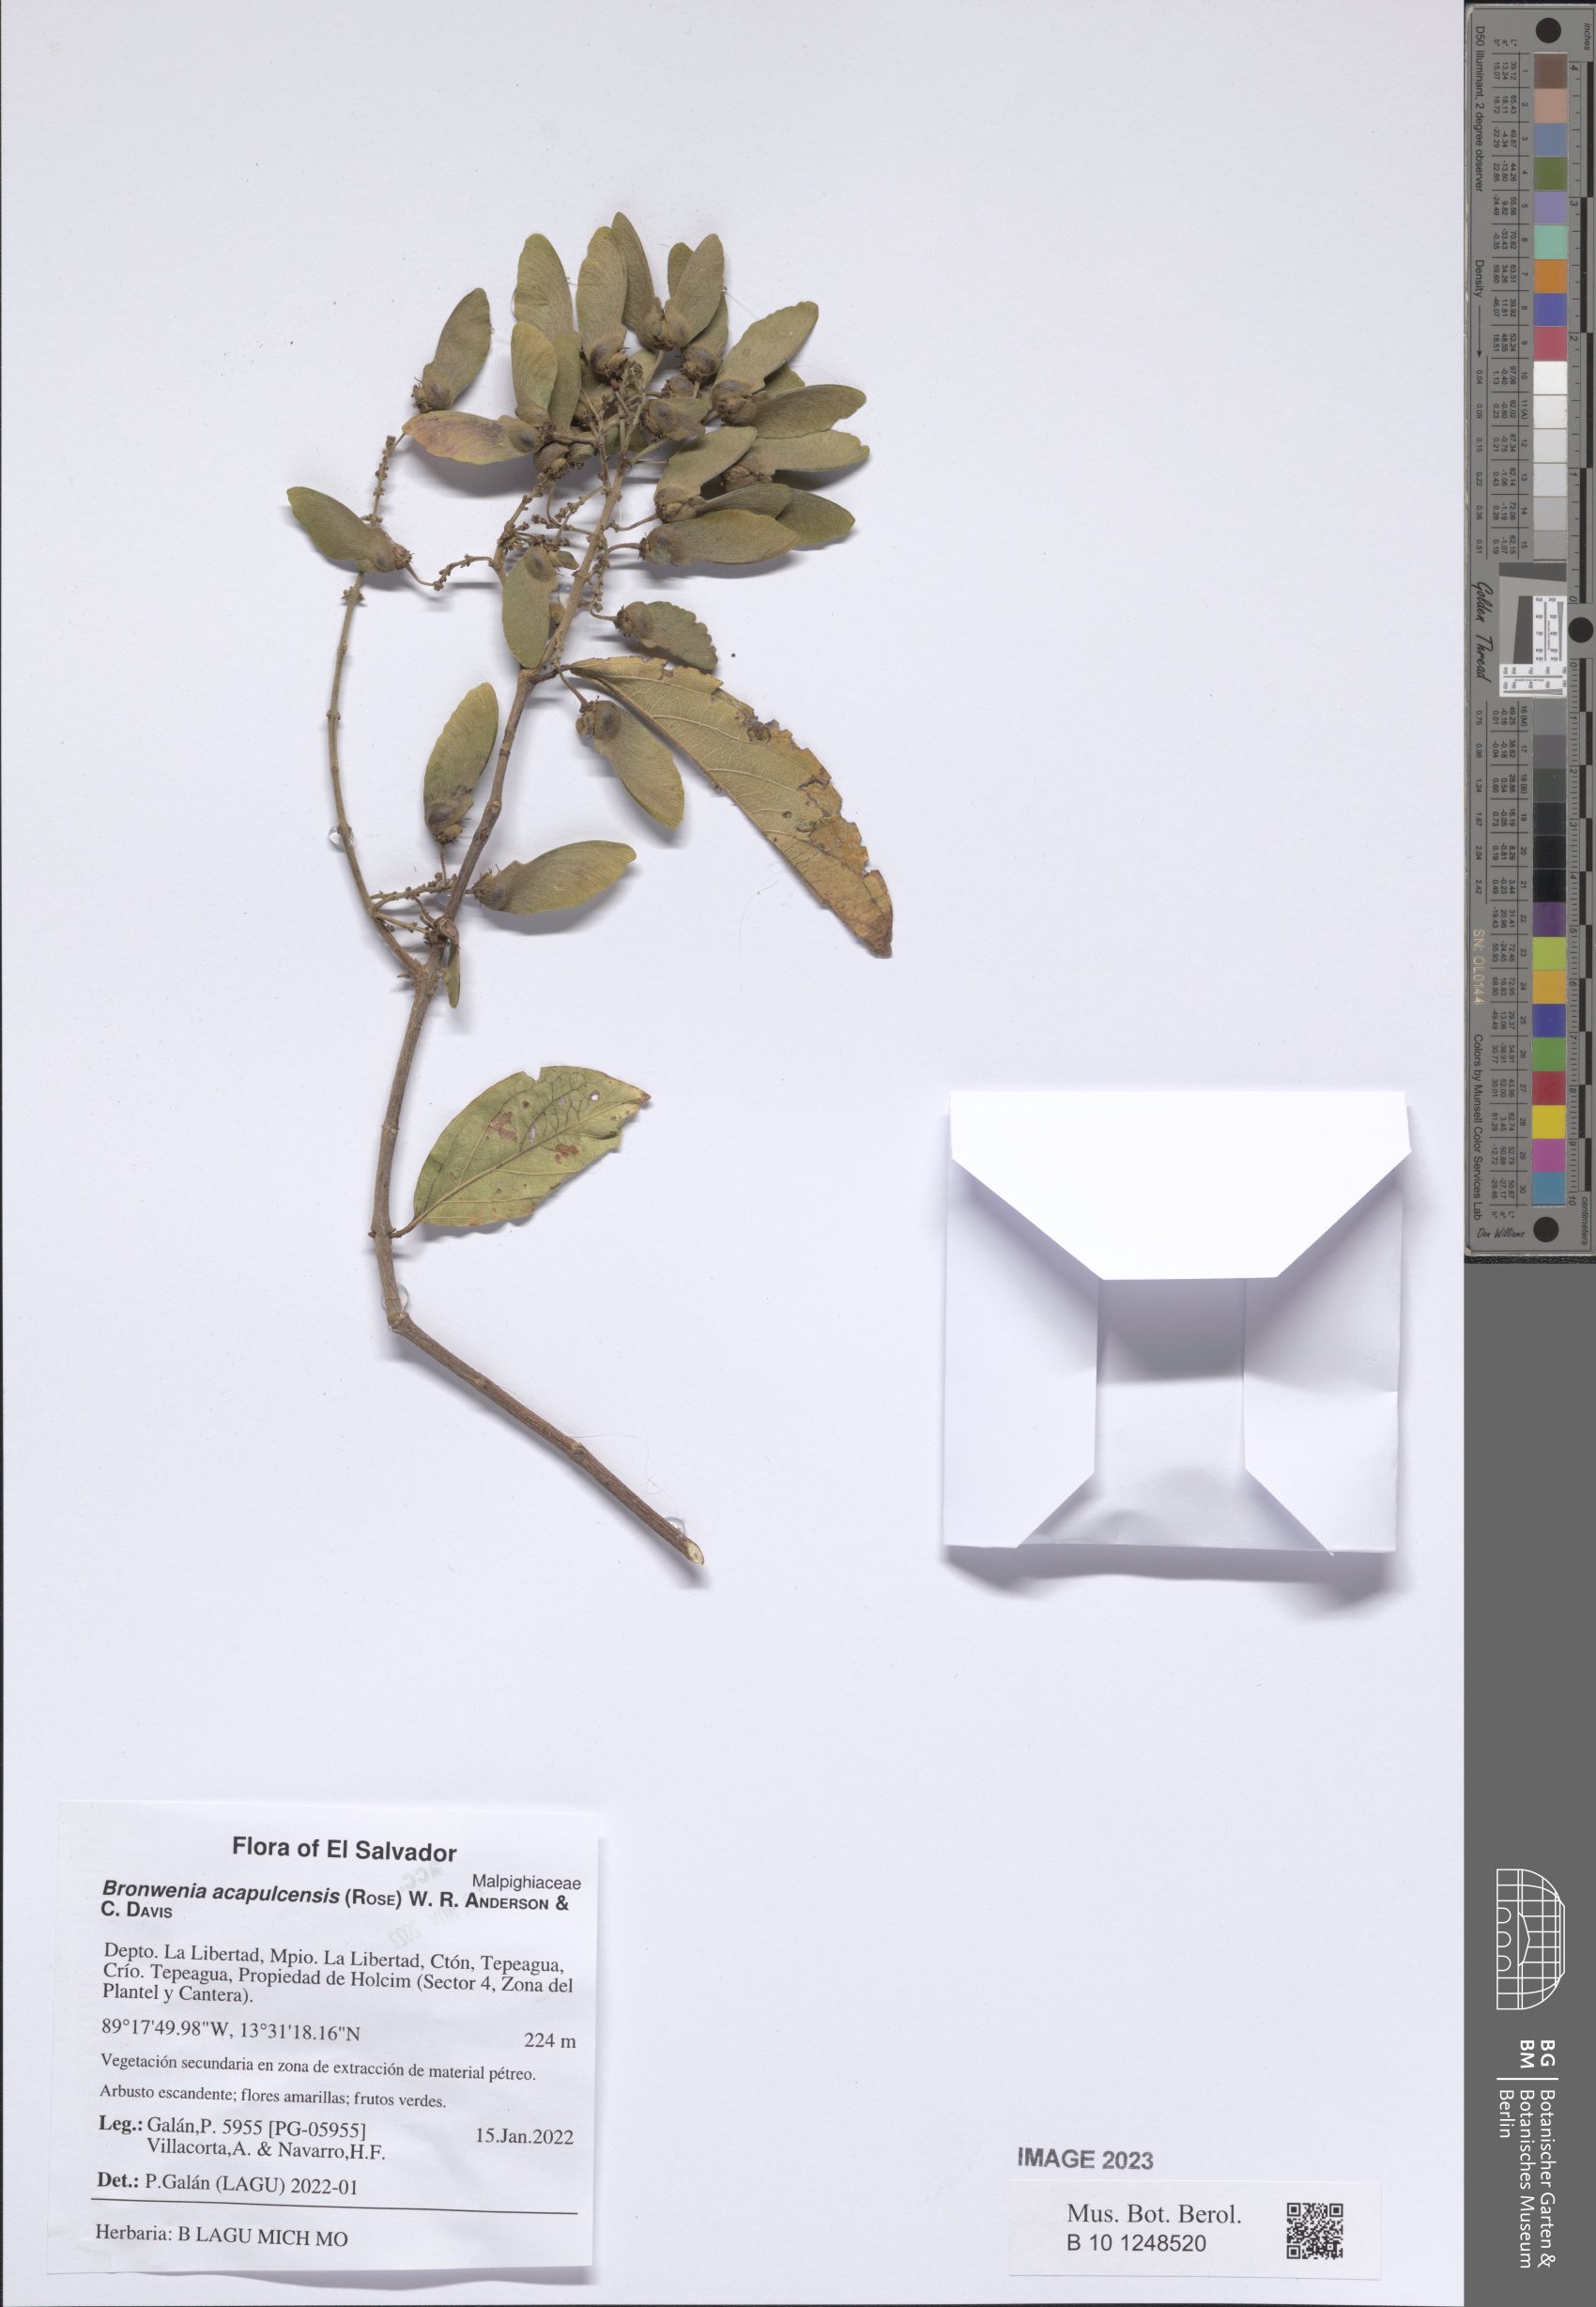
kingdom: Plantae
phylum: Tracheophyta
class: Magnoliopsida
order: Malpighiales
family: Malpighiaceae
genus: Bronwenia
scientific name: Bronwenia acapulcensis
